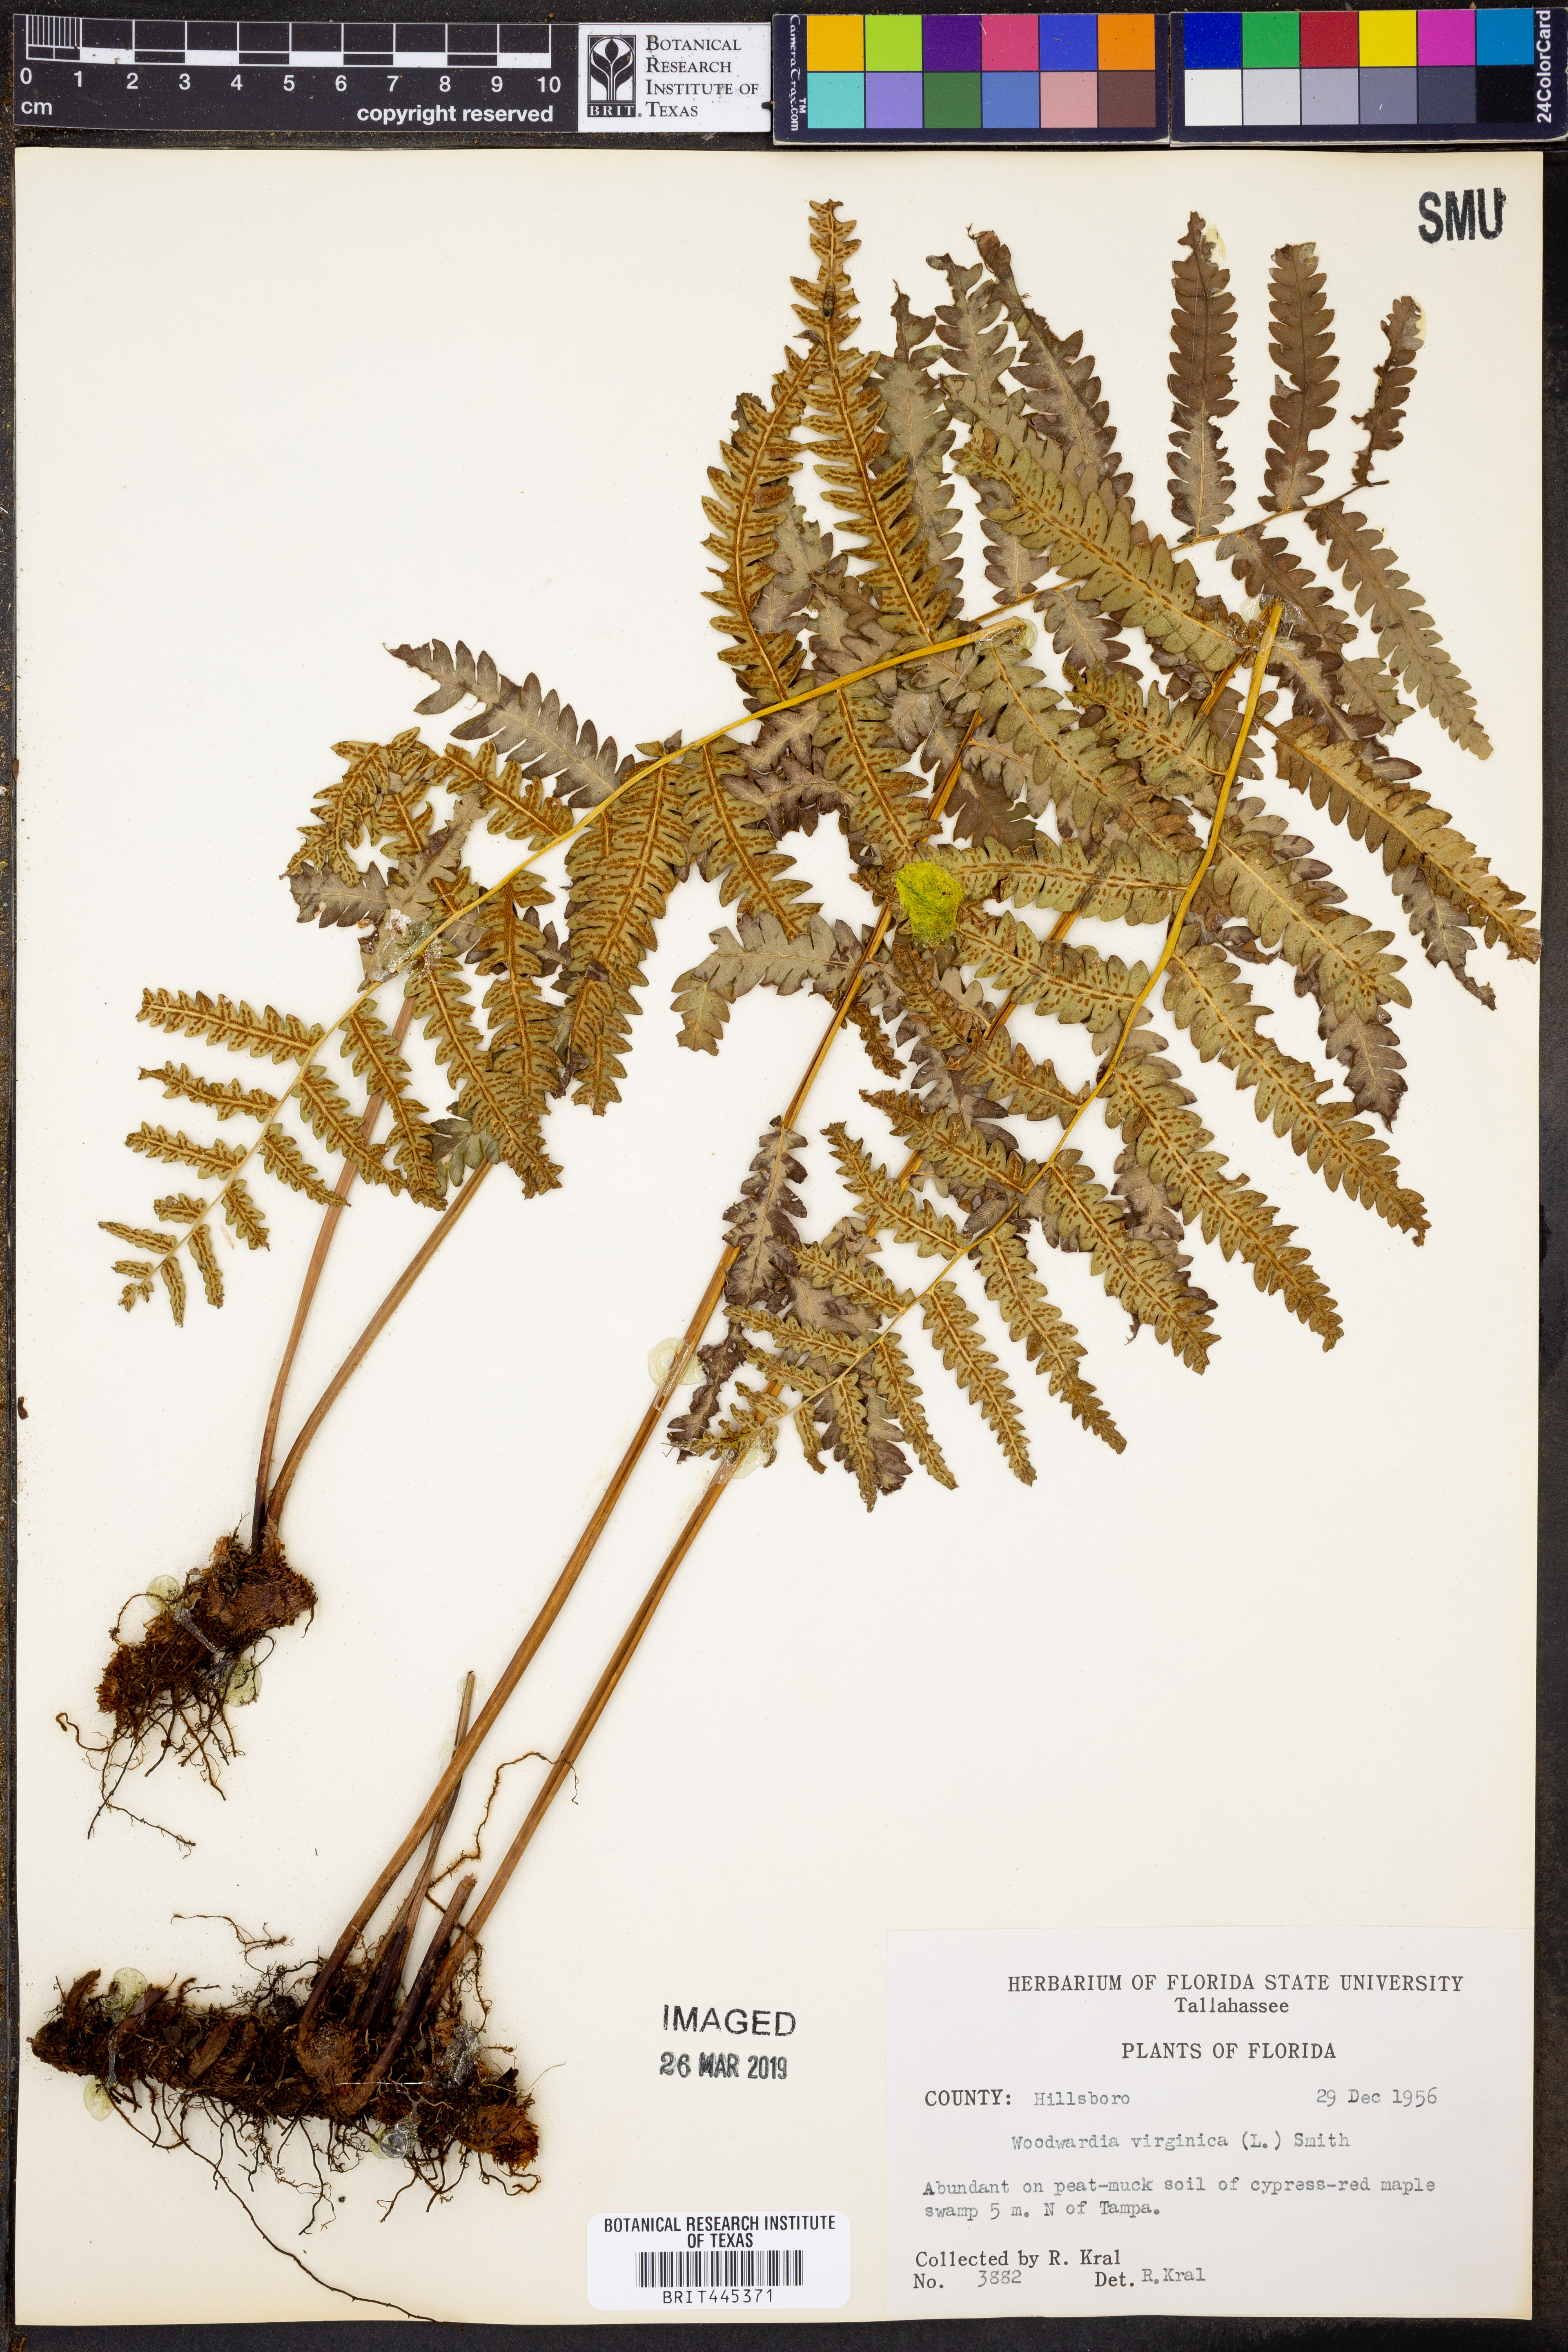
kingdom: Plantae
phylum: Tracheophyta
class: Polypodiopsida
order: Polypodiales
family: Blechnaceae
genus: Anchistea
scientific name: Anchistea virginica
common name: Virginia chain fern
